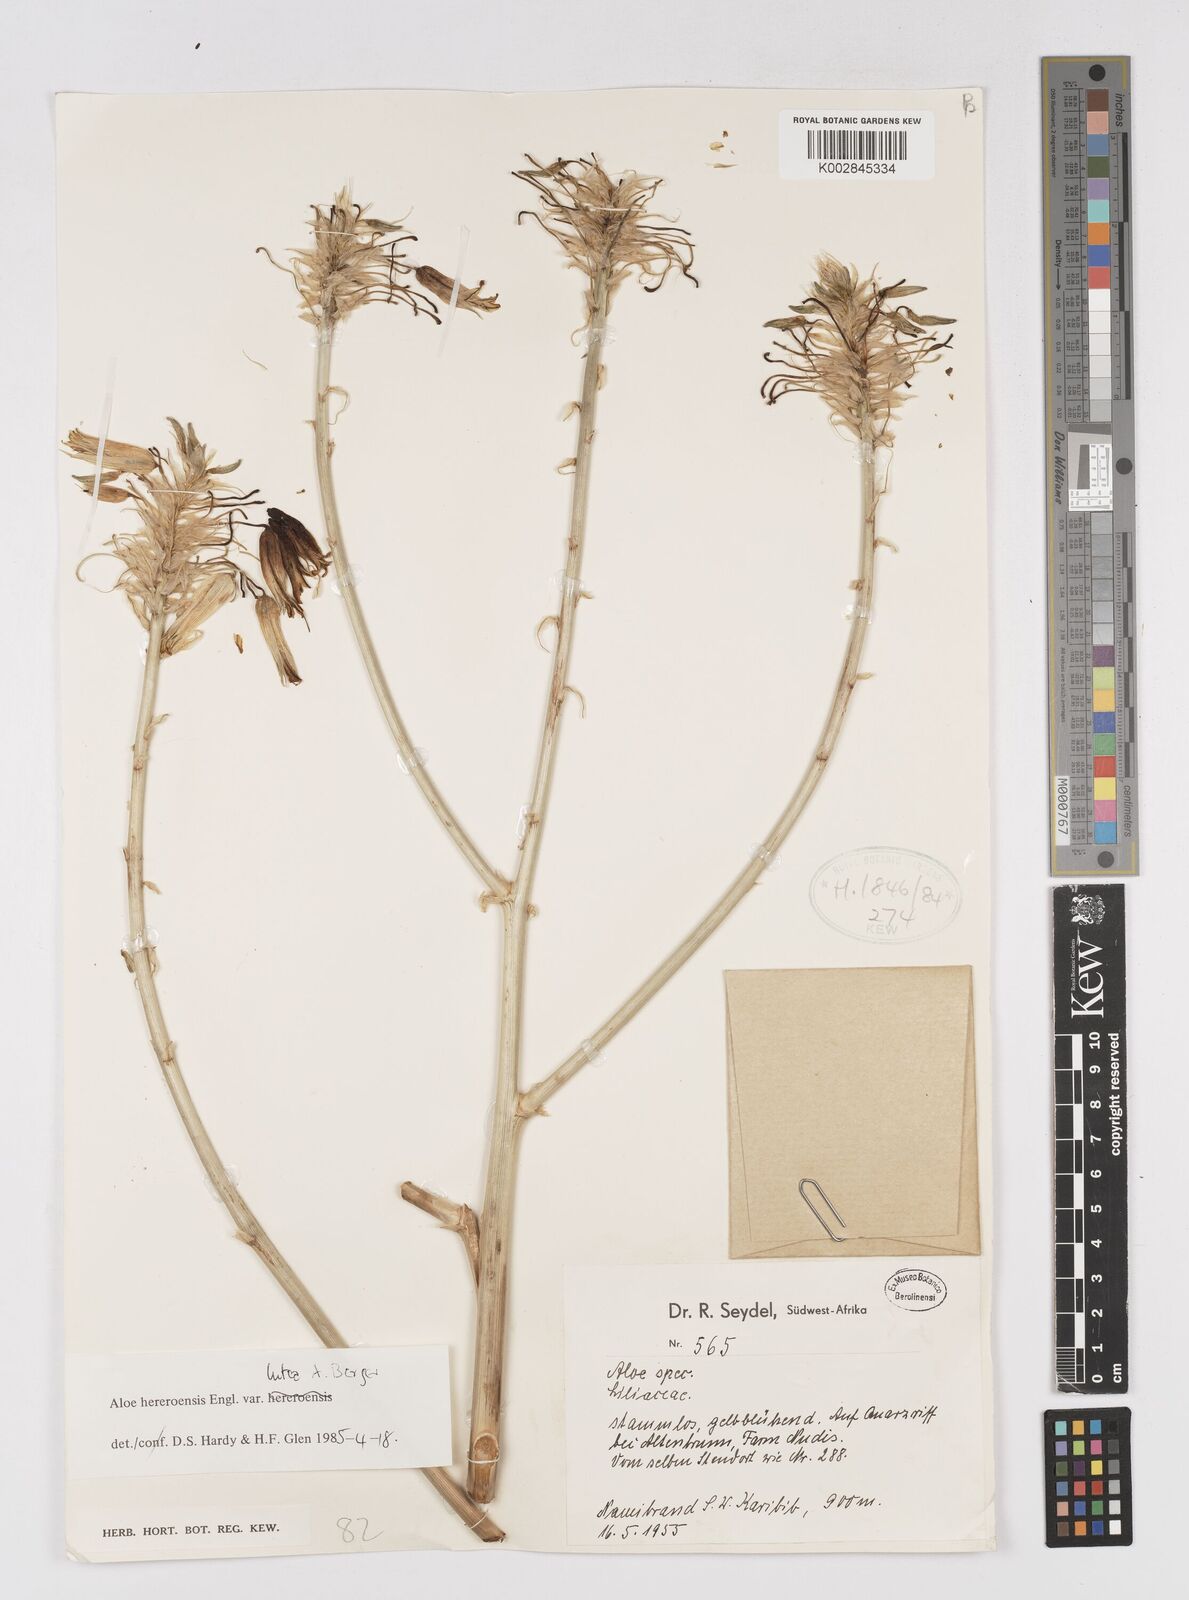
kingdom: Plantae
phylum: Tracheophyta
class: Liliopsida
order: Asparagales
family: Asphodelaceae
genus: Aloe
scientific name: Aloe hereroensis
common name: Herero aloe
